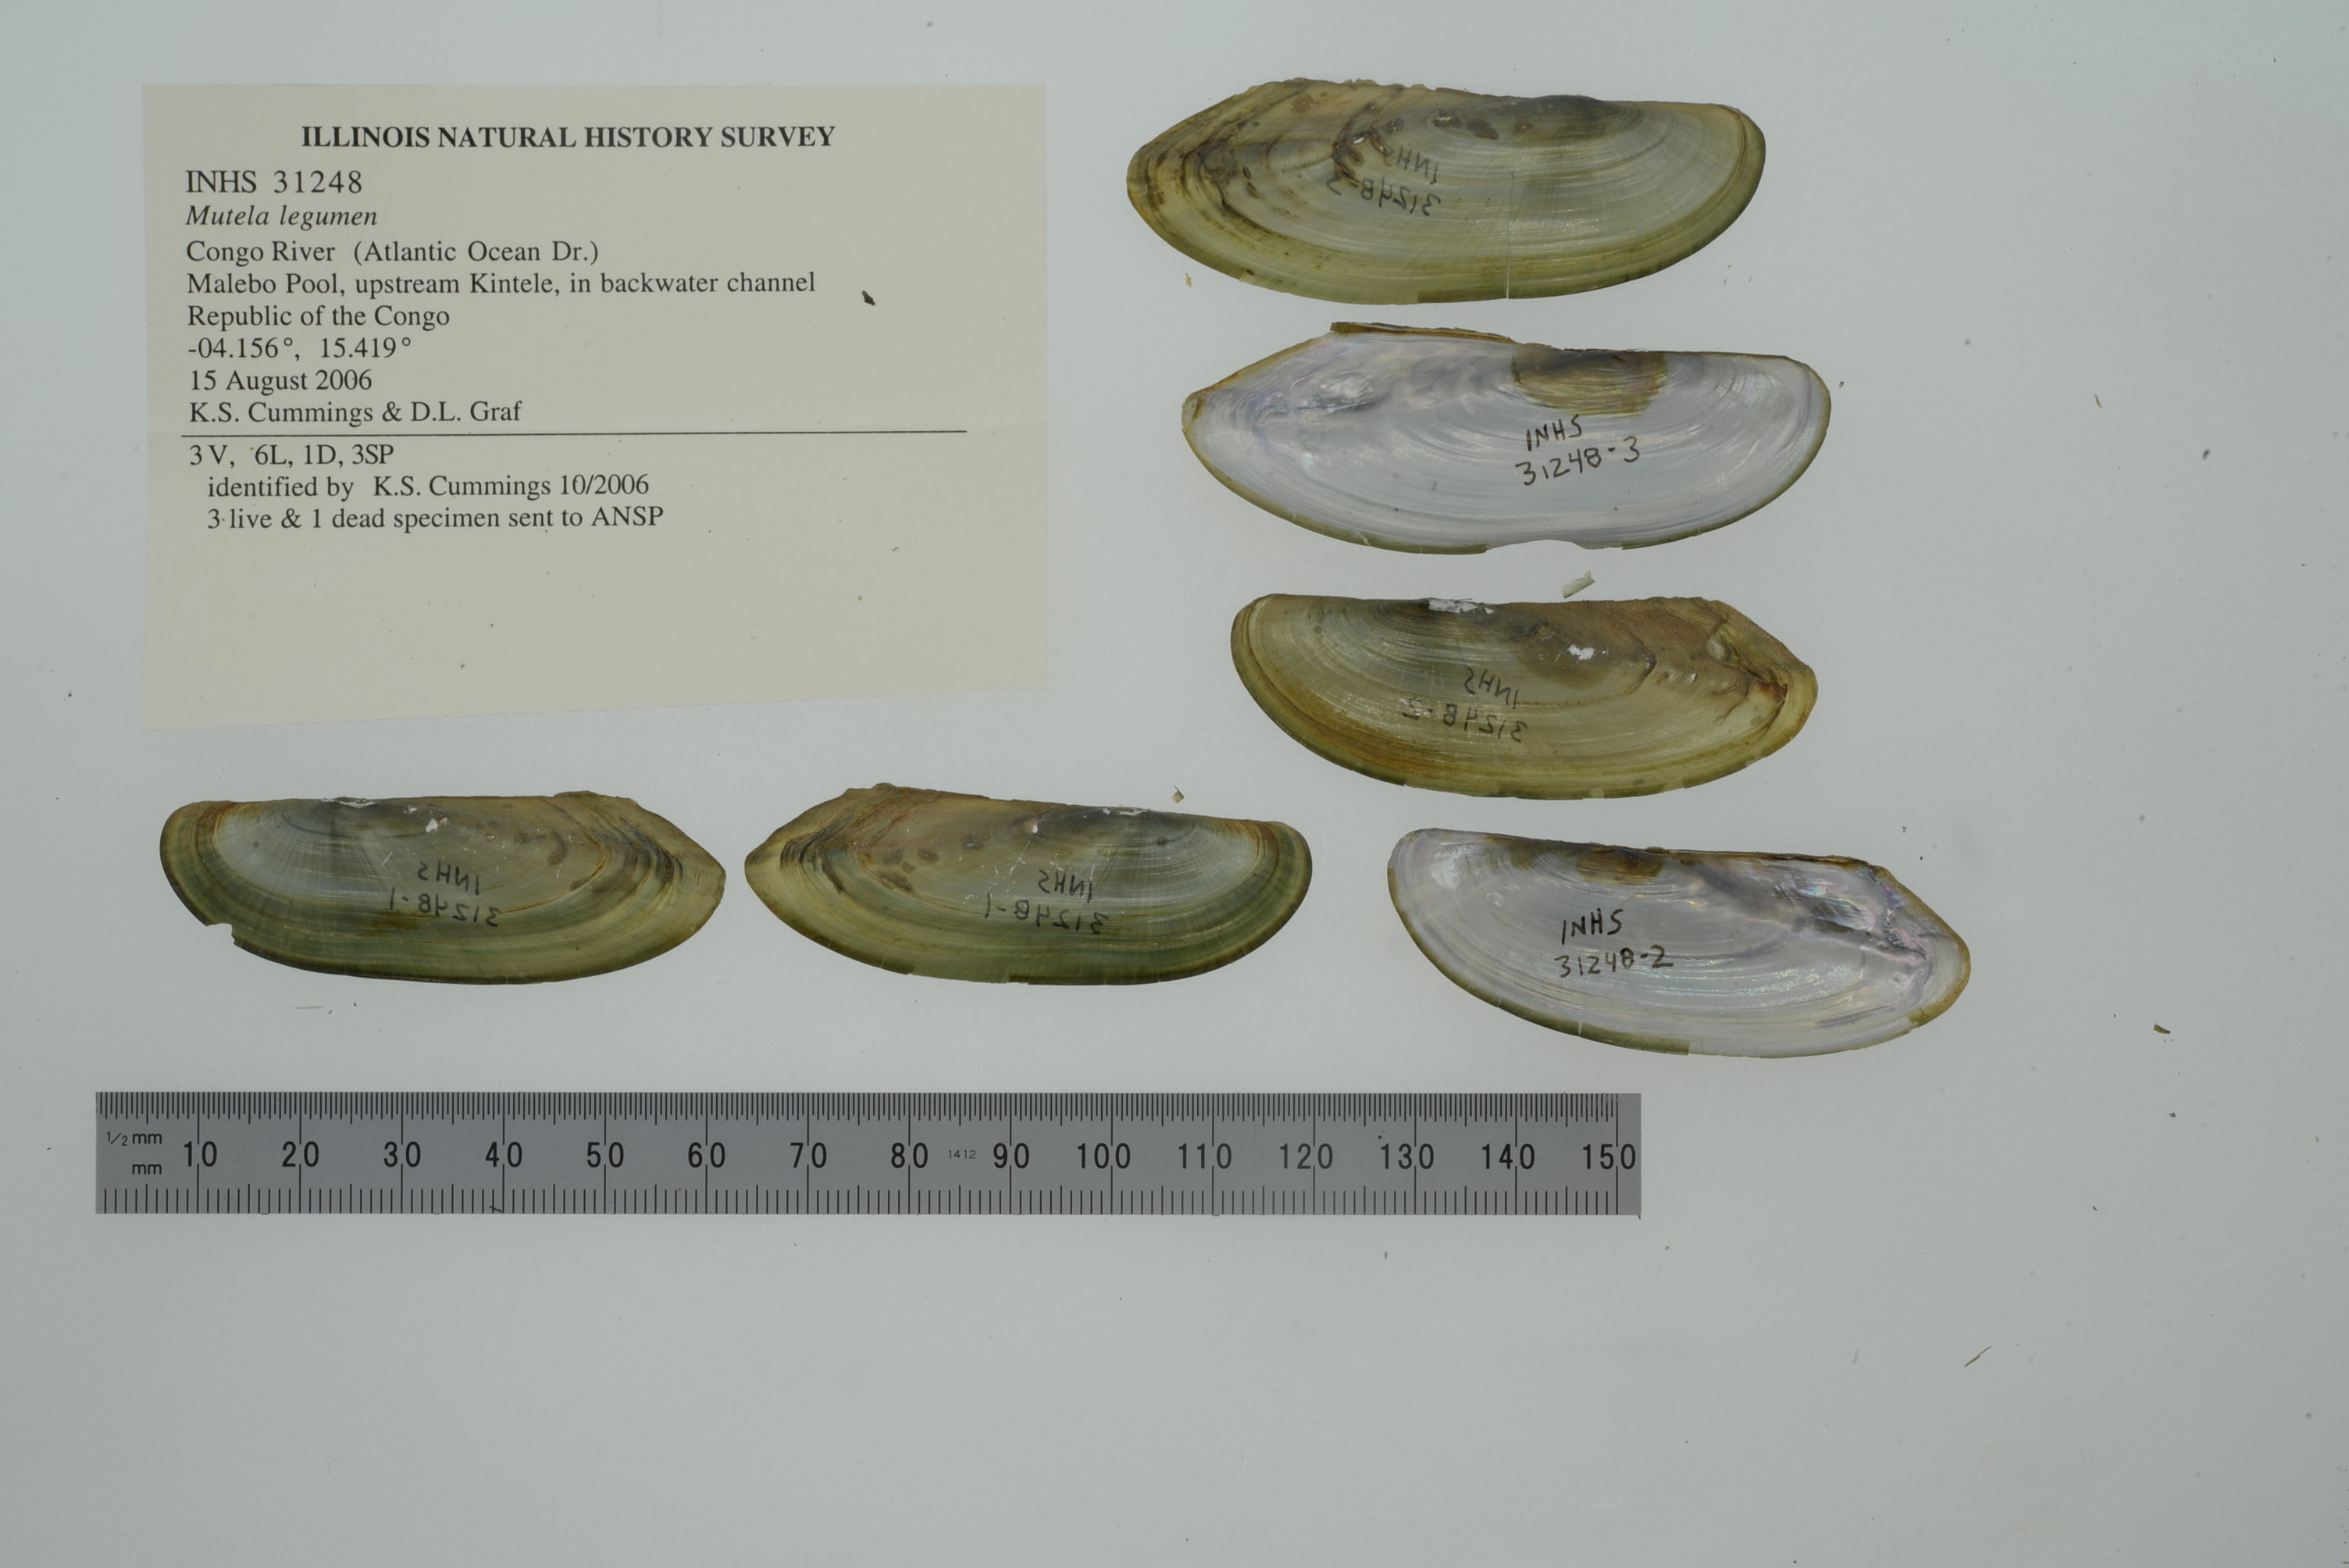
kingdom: Animalia
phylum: Mollusca
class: Bivalvia
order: Unionida
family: Iridinidae
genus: Mutela
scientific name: Mutela legumen
